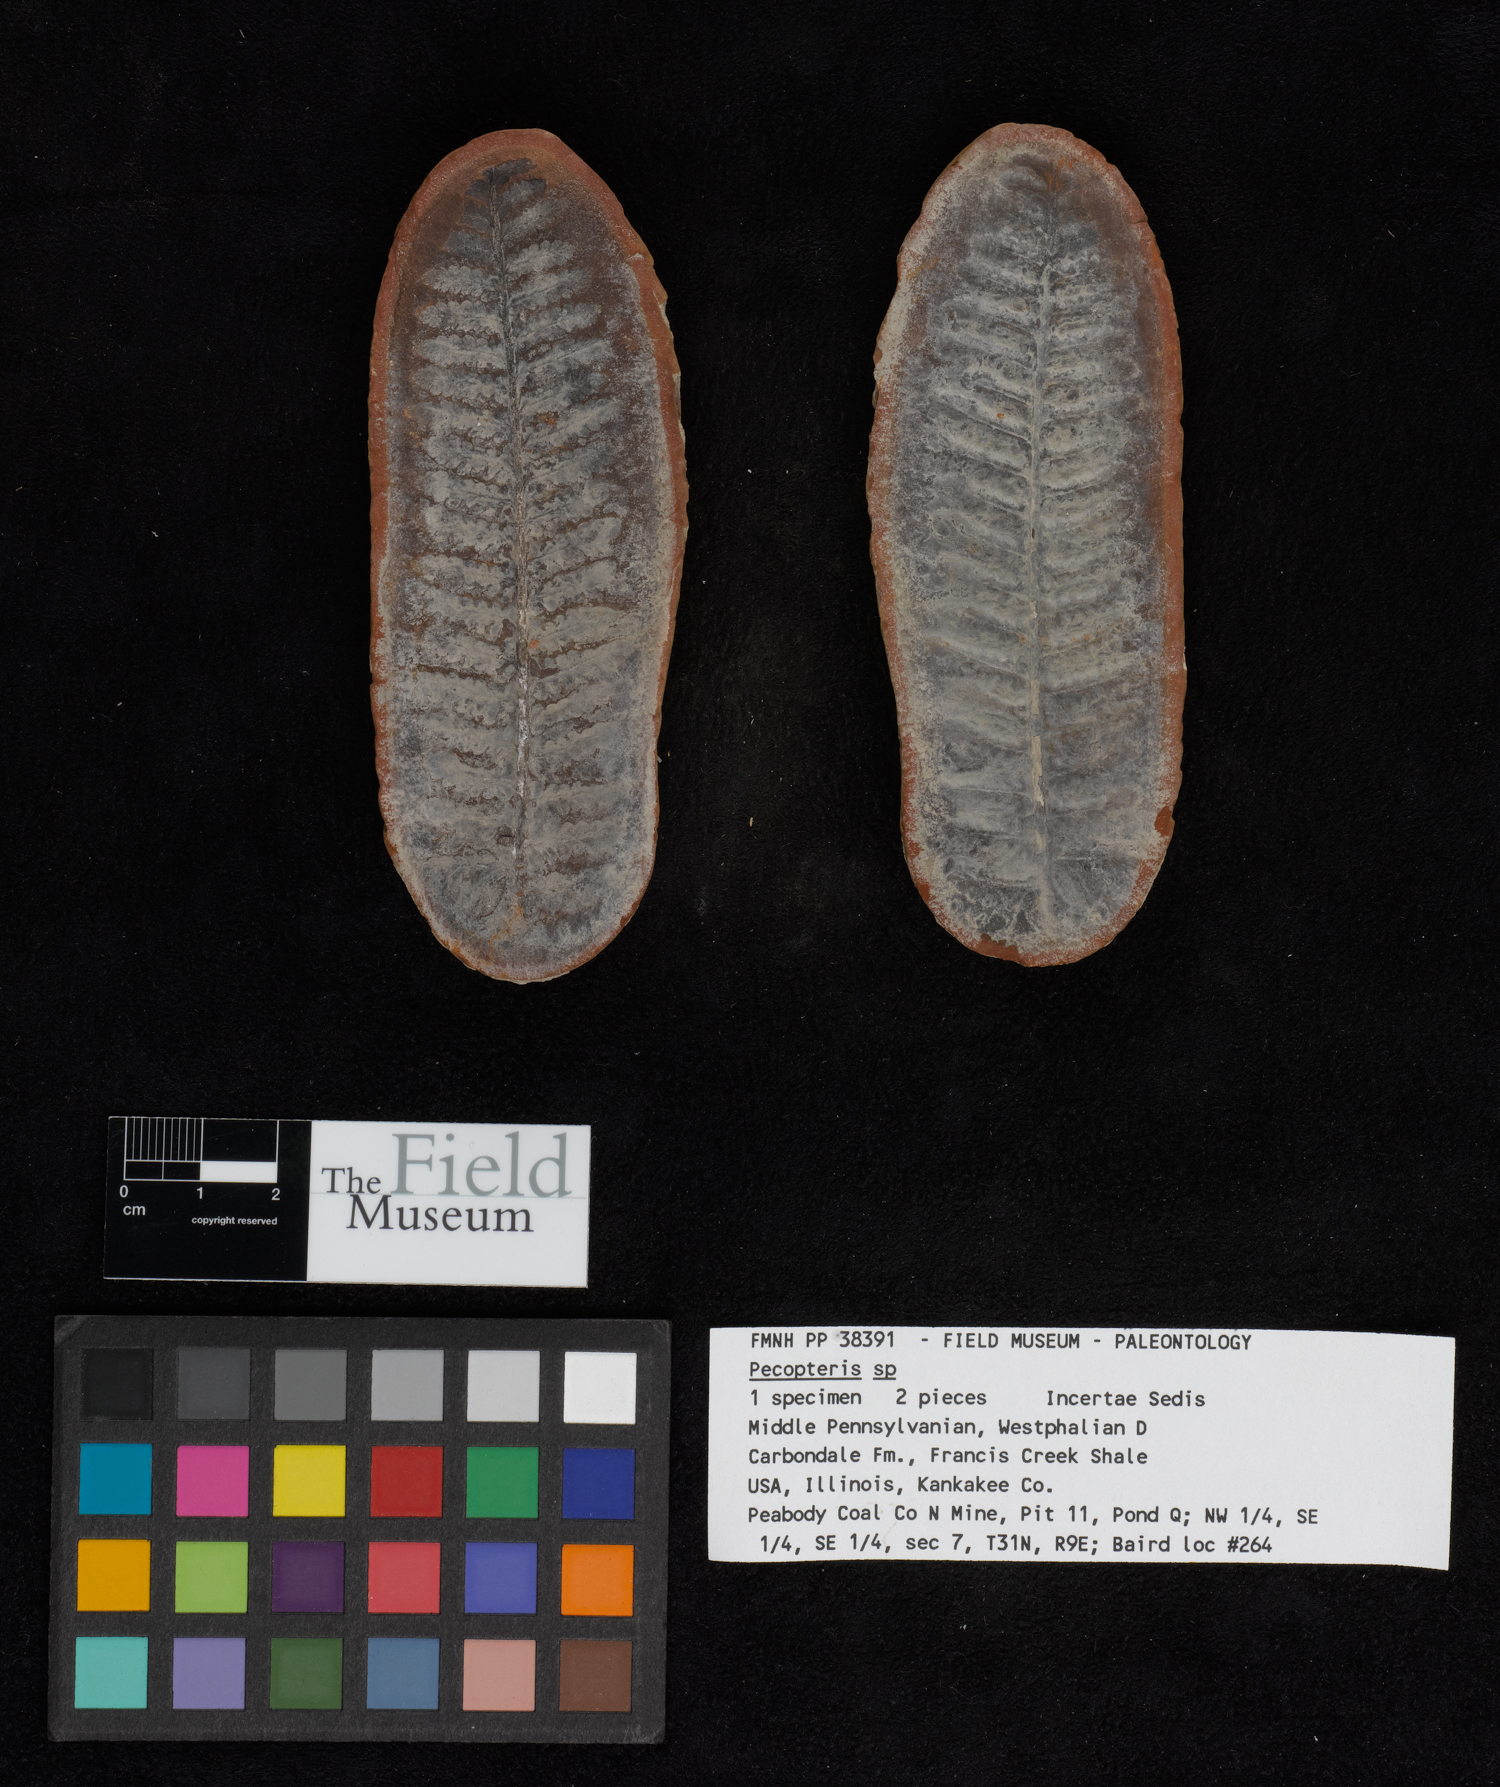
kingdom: Plantae
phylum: Tracheophyta
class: Polypodiopsida
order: Marattiales
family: Asterothecaceae
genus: Pecopteris
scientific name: Pecopteris
